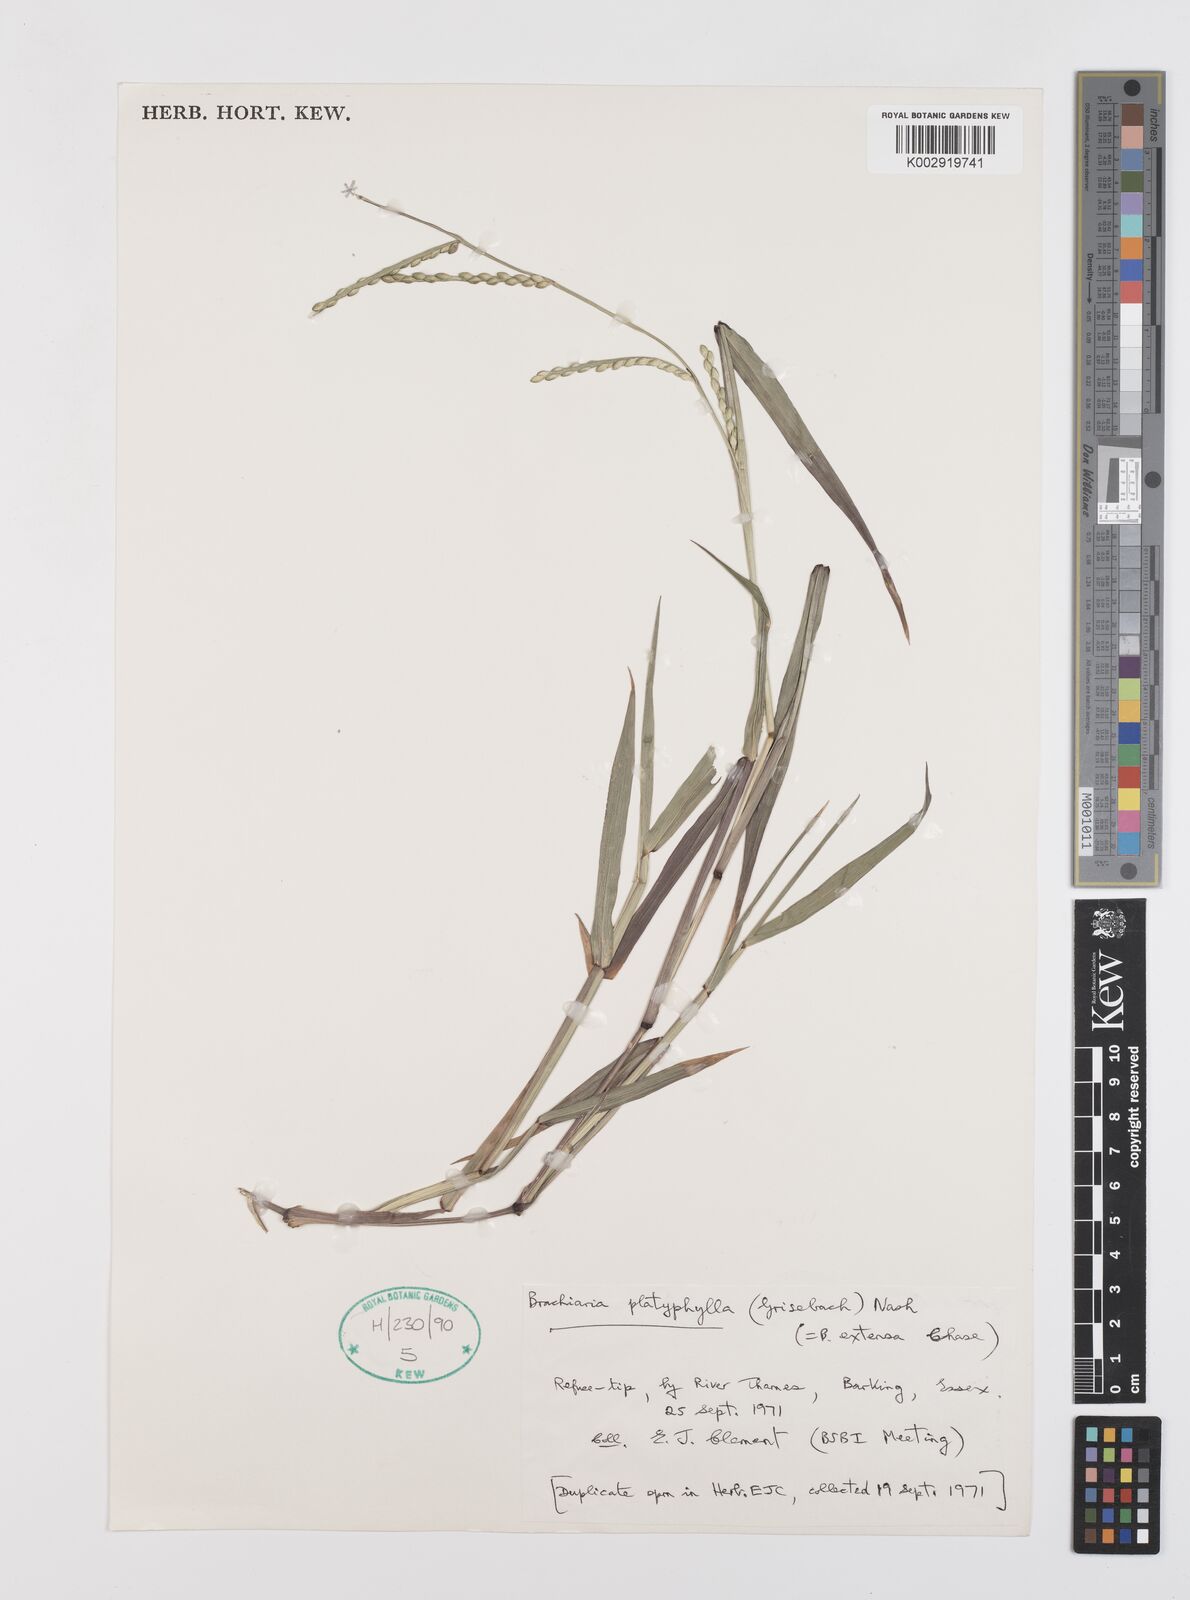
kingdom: Plantae
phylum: Tracheophyta
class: Liliopsida
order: Poales
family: Poaceae
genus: Urochloa
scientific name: Urochloa platyphylla
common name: White para grass
